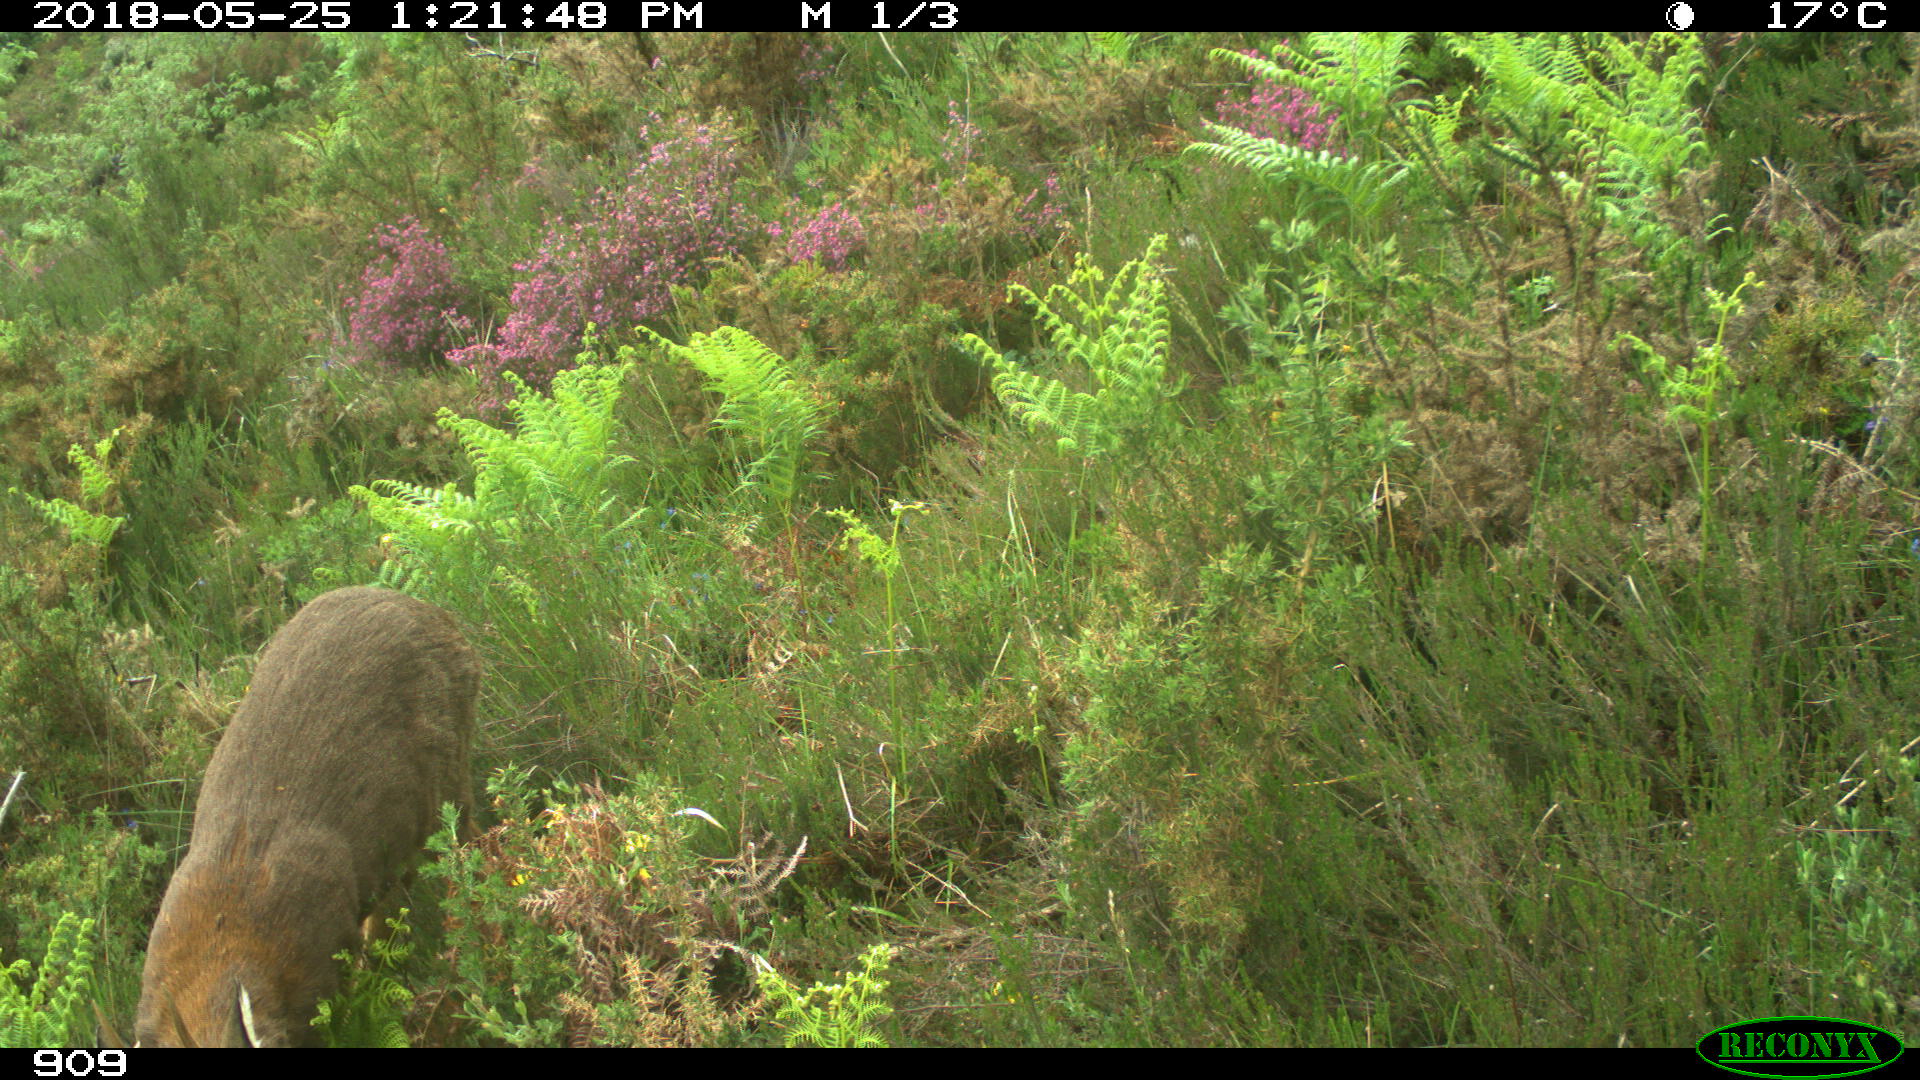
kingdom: Animalia
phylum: Chordata
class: Mammalia
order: Artiodactyla
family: Cervidae
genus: Capreolus
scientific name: Capreolus capreolus
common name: Western roe deer
